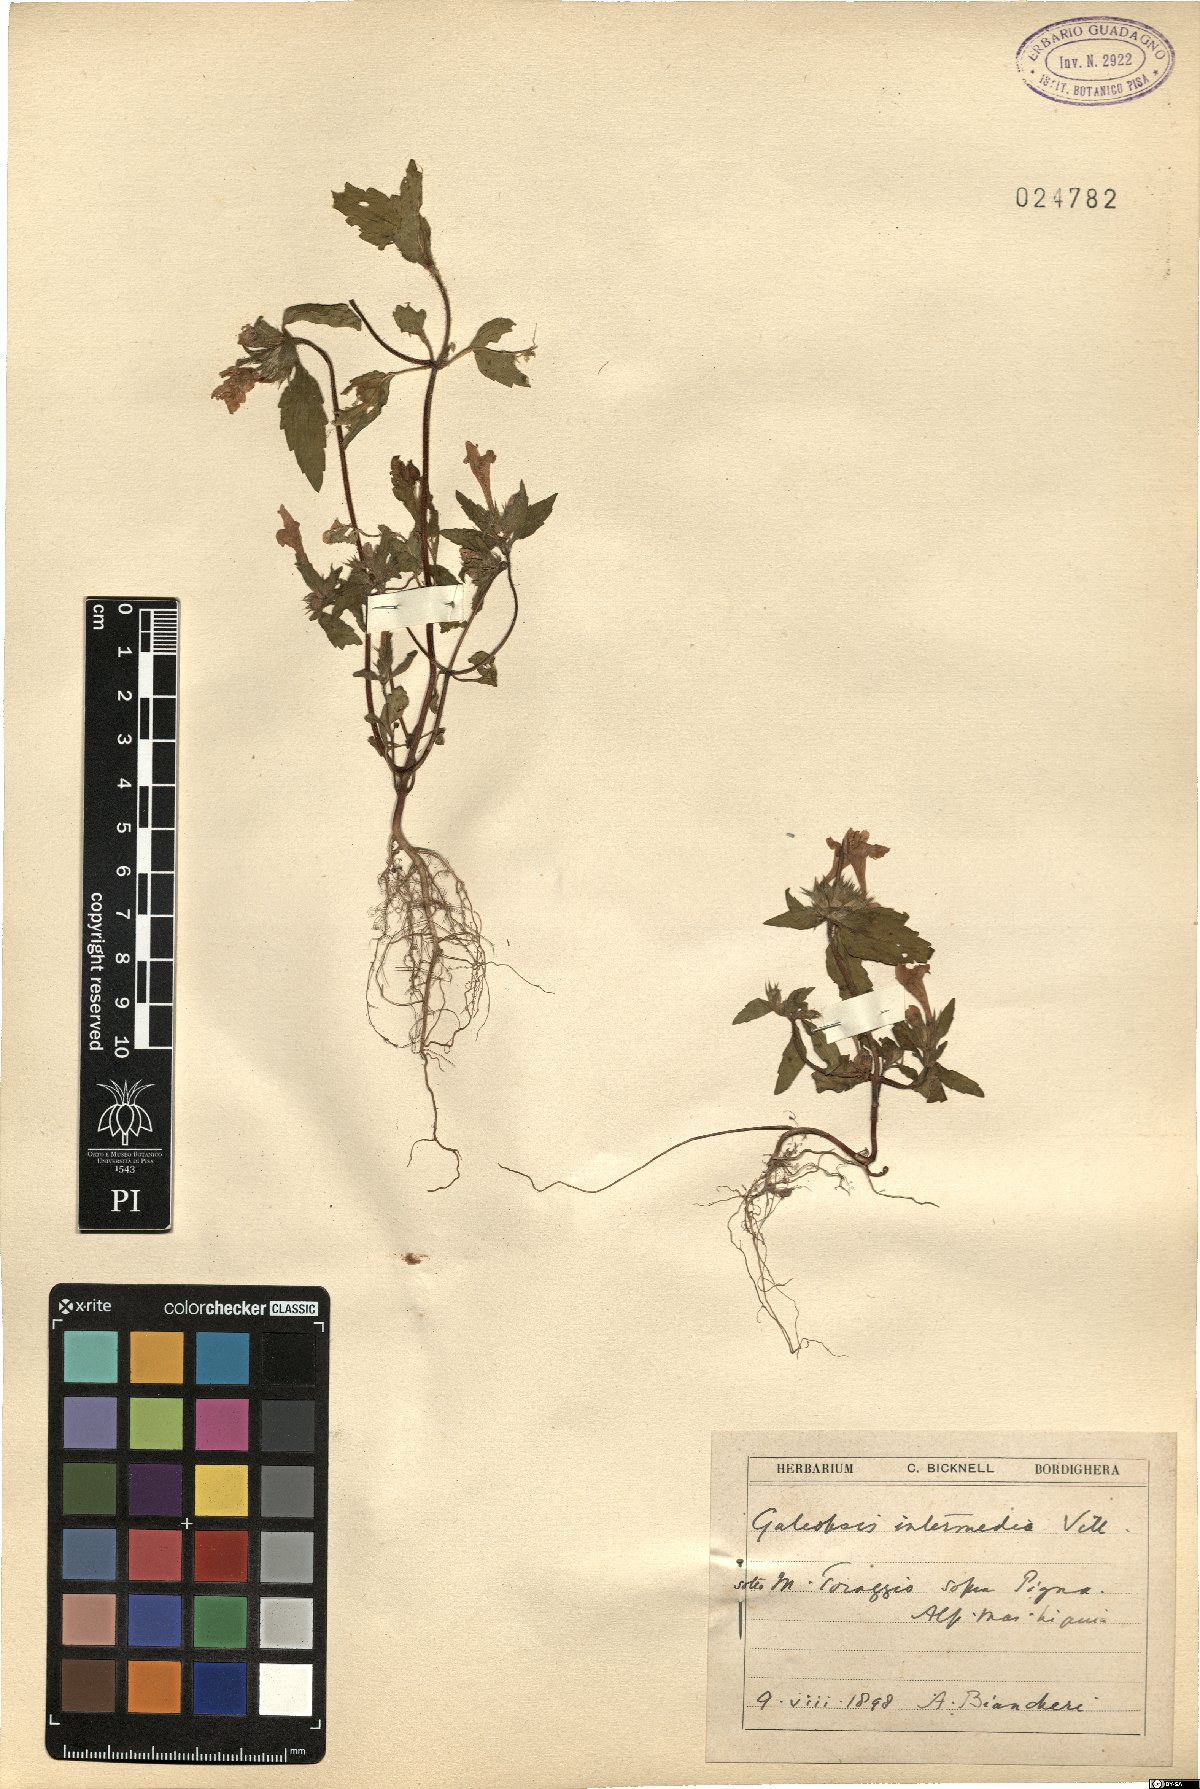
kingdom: Plantae
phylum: Tracheophyta
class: Magnoliopsida
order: Lamiales
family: Lamiaceae
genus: Galeopsis
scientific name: Galeopsis ladanum
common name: Broad-leaved hemp-nettle
